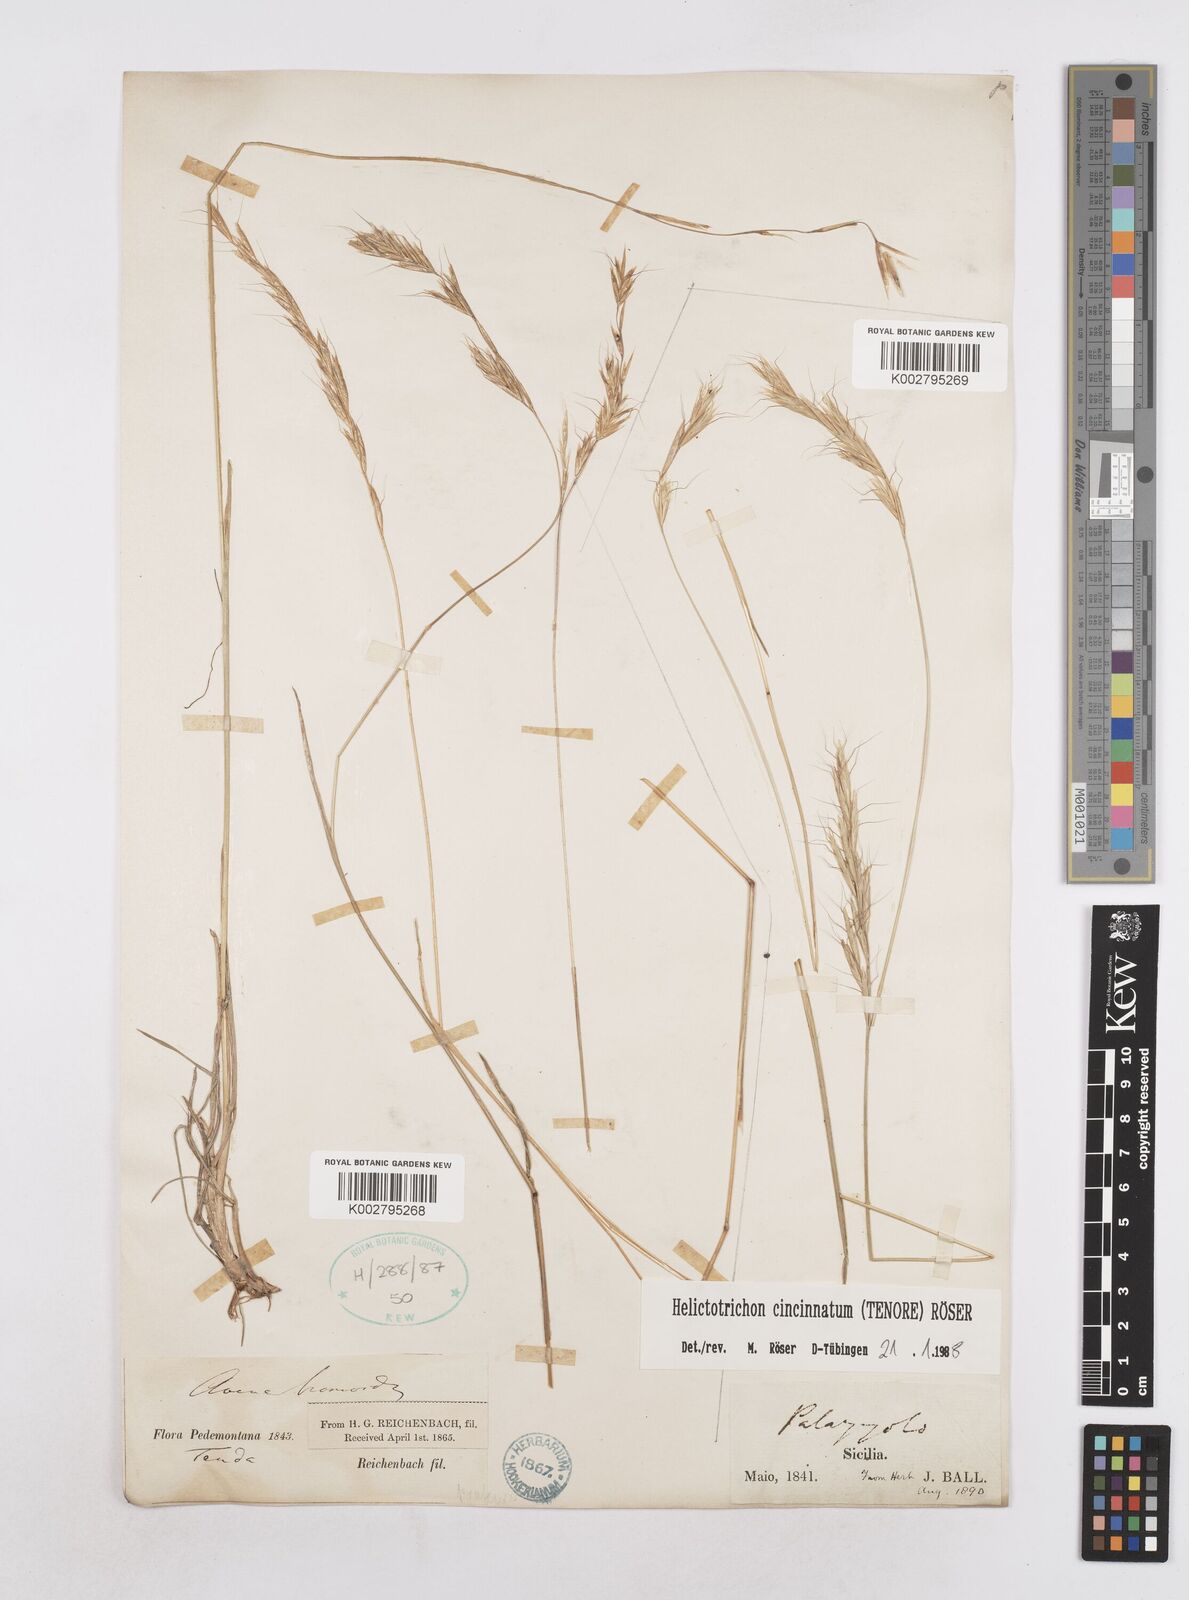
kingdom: Plantae
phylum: Tracheophyta
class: Liliopsida
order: Poales
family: Poaceae
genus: Helictochloa
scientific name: Helictochloa cincinnata
